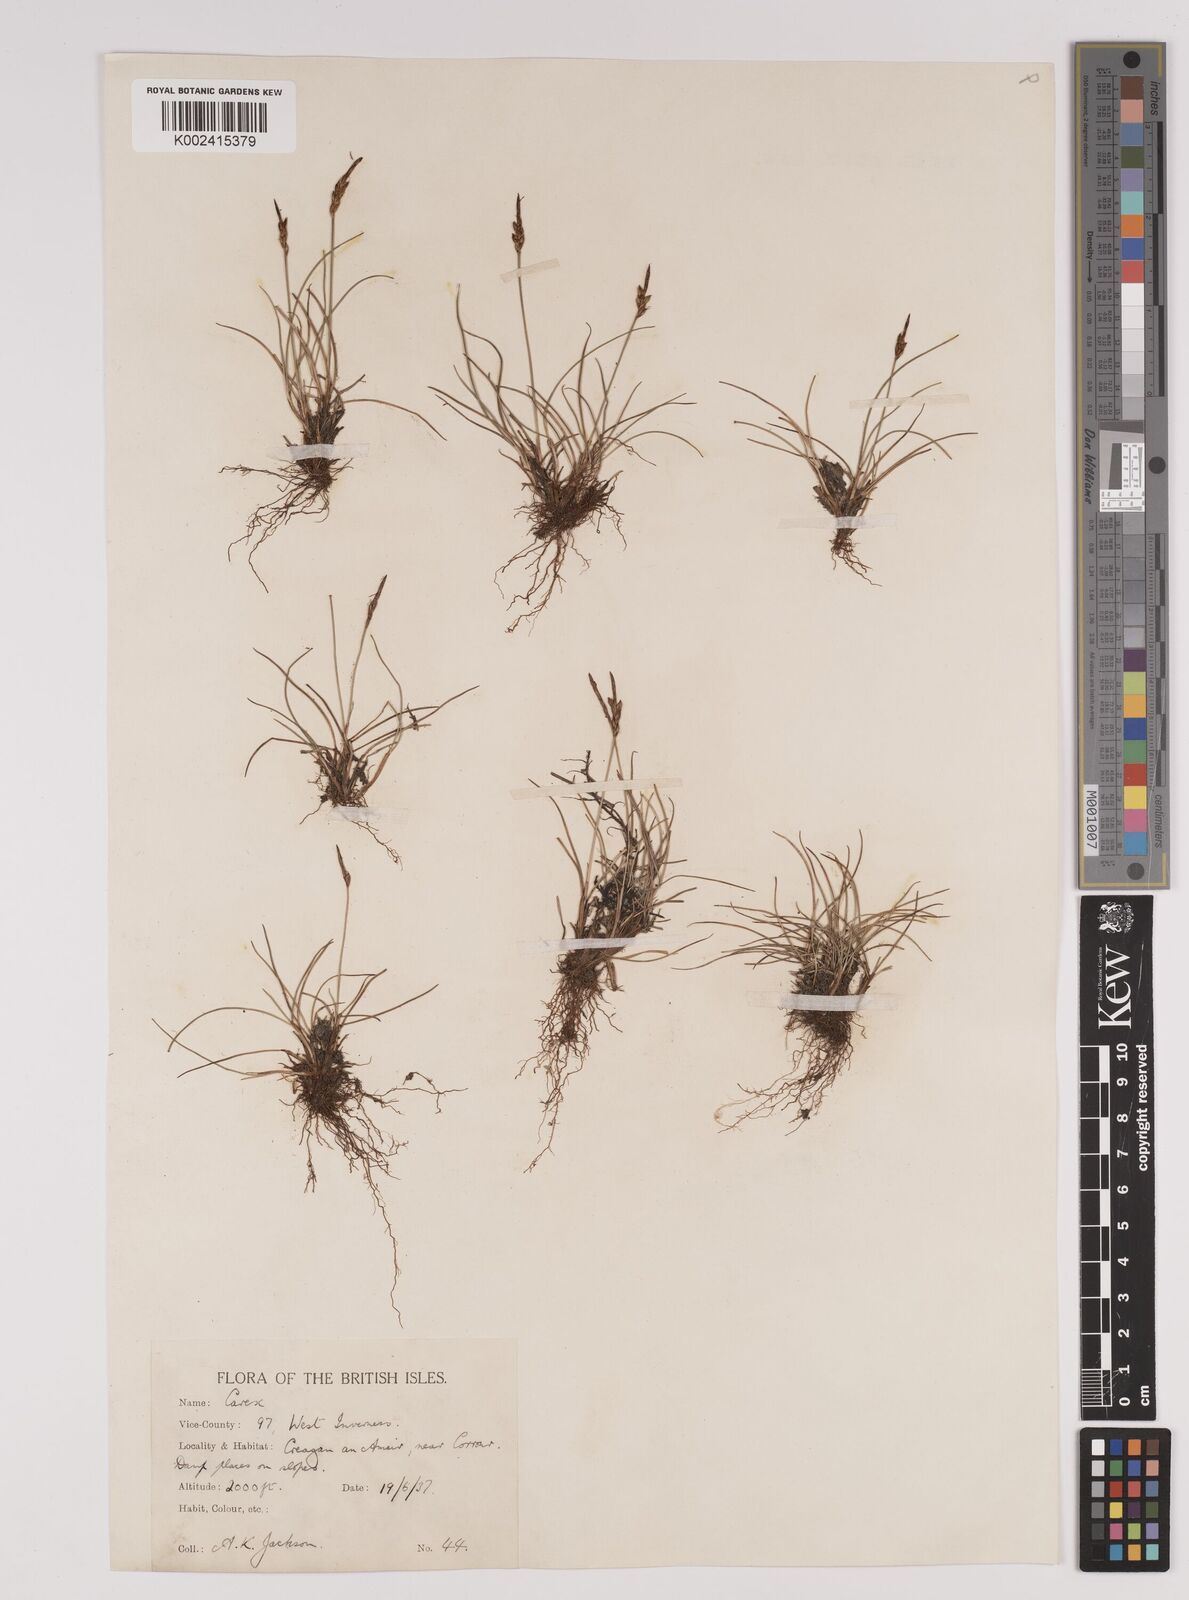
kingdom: Plantae
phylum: Tracheophyta
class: Liliopsida
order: Poales
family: Cyperaceae
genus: Carex
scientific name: Carex pulicaris
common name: Flea sedge
